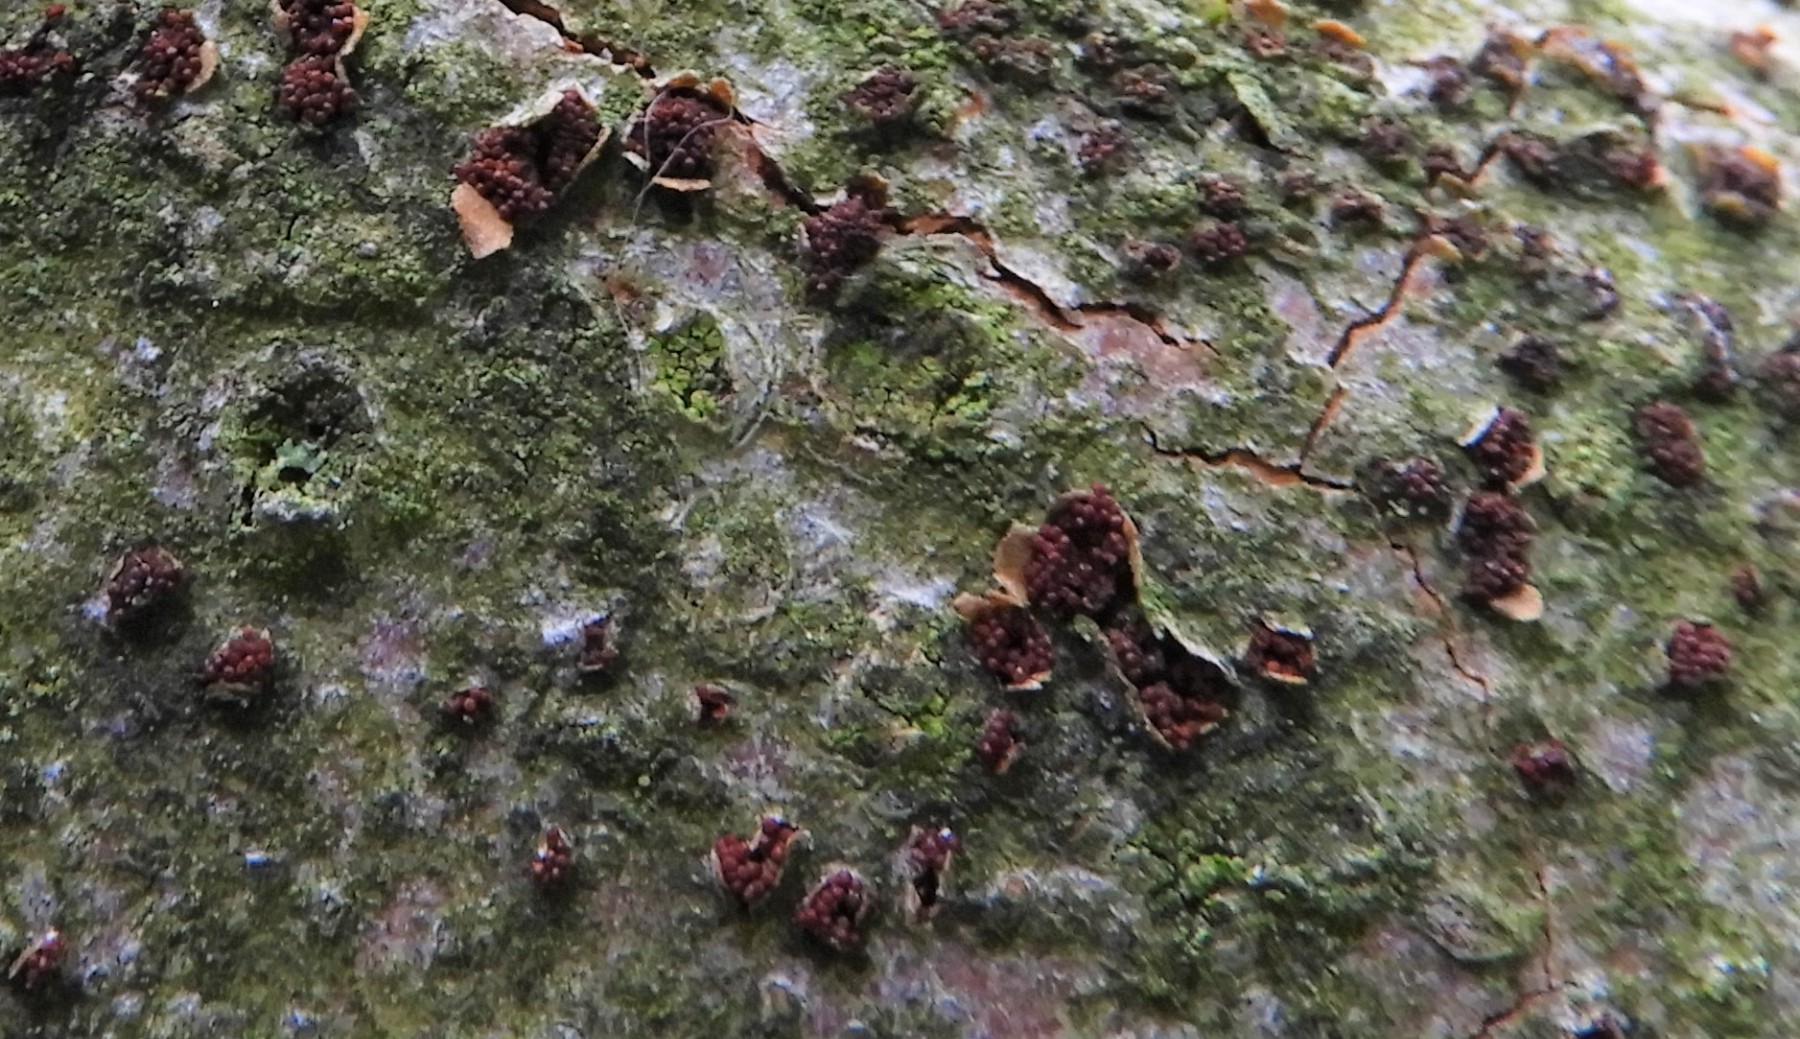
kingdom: Fungi
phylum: Ascomycota
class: Sordariomycetes
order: Hypocreales
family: Nectriaceae
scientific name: Nectriaceae
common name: cinnobersvampfamilien
